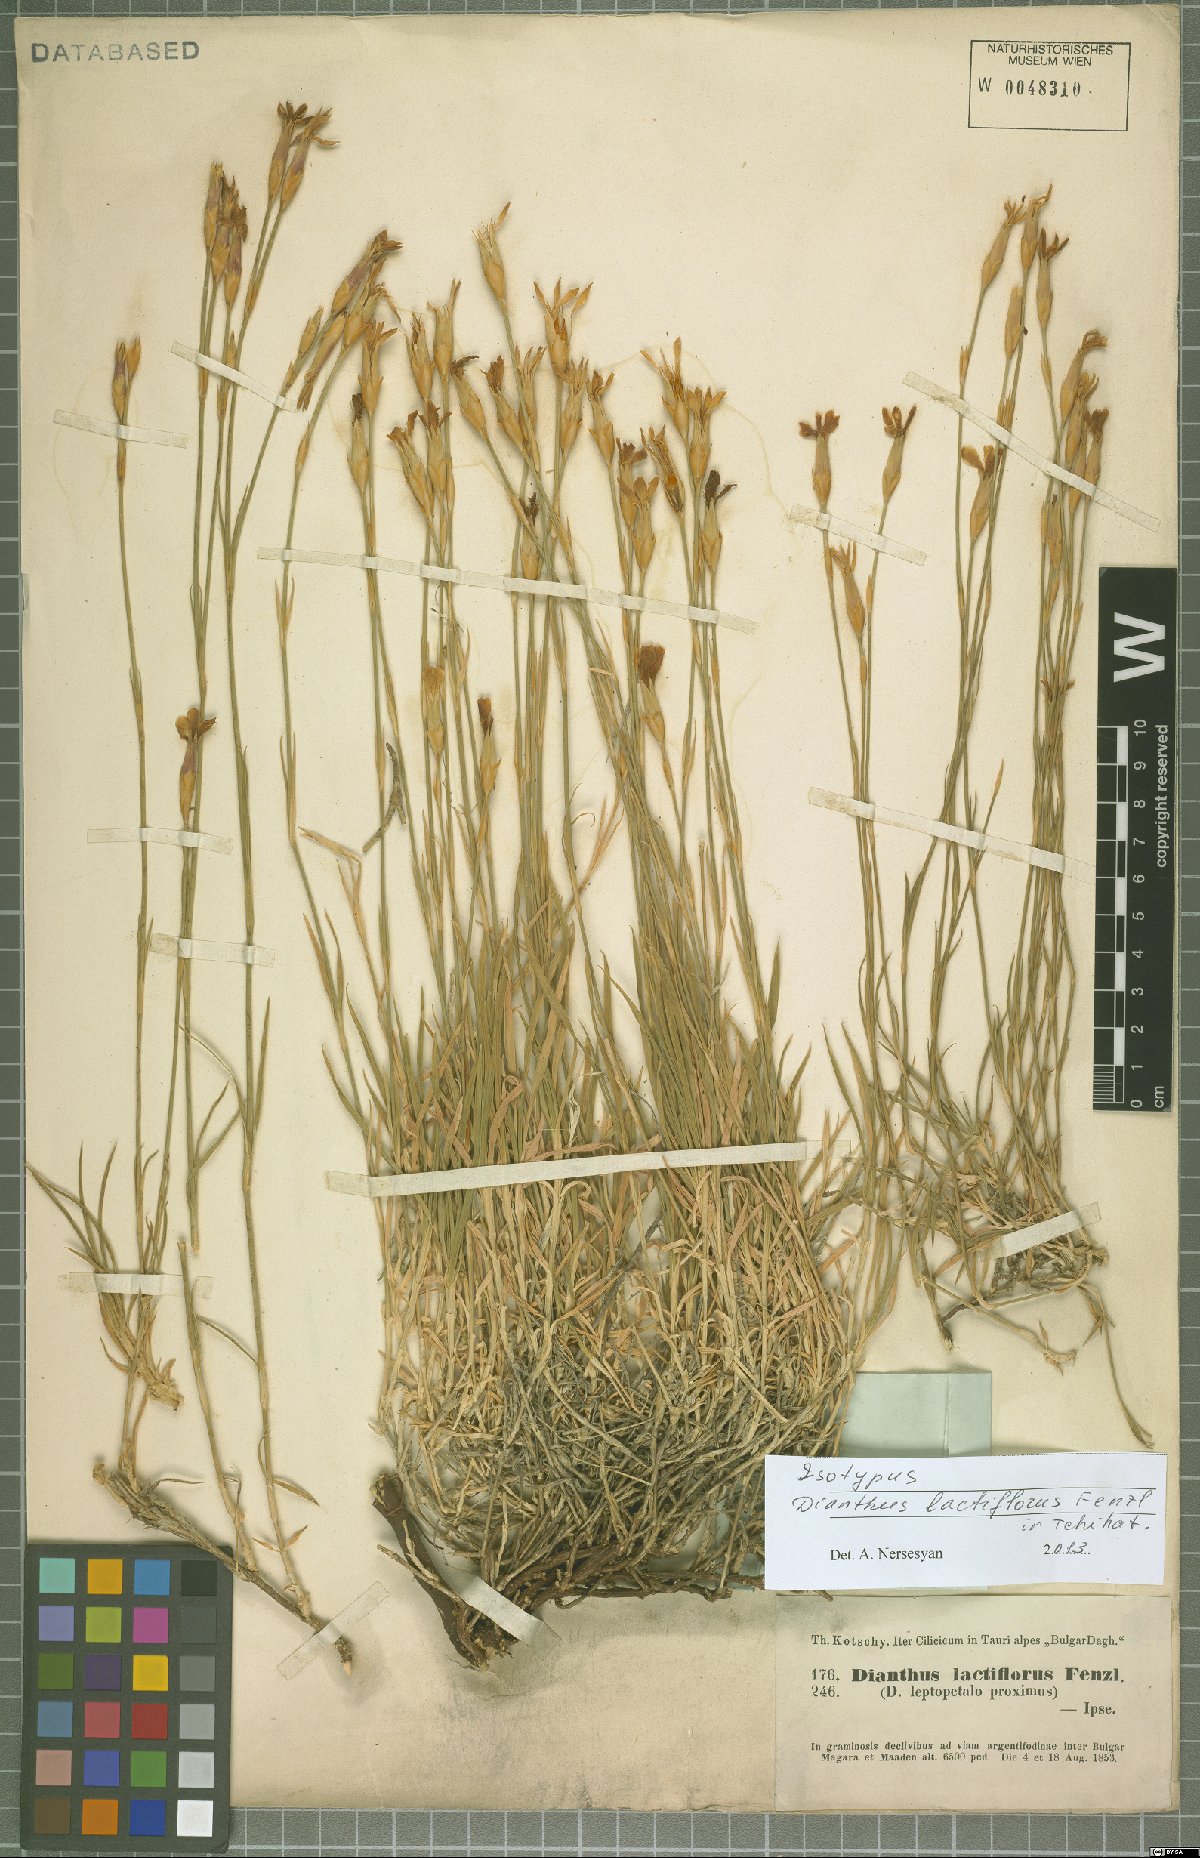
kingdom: Plantae
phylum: Tracheophyta
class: Magnoliopsida
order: Caryophyllales
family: Caryophyllaceae
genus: Dianthus
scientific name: Dianthus lactiflorus
